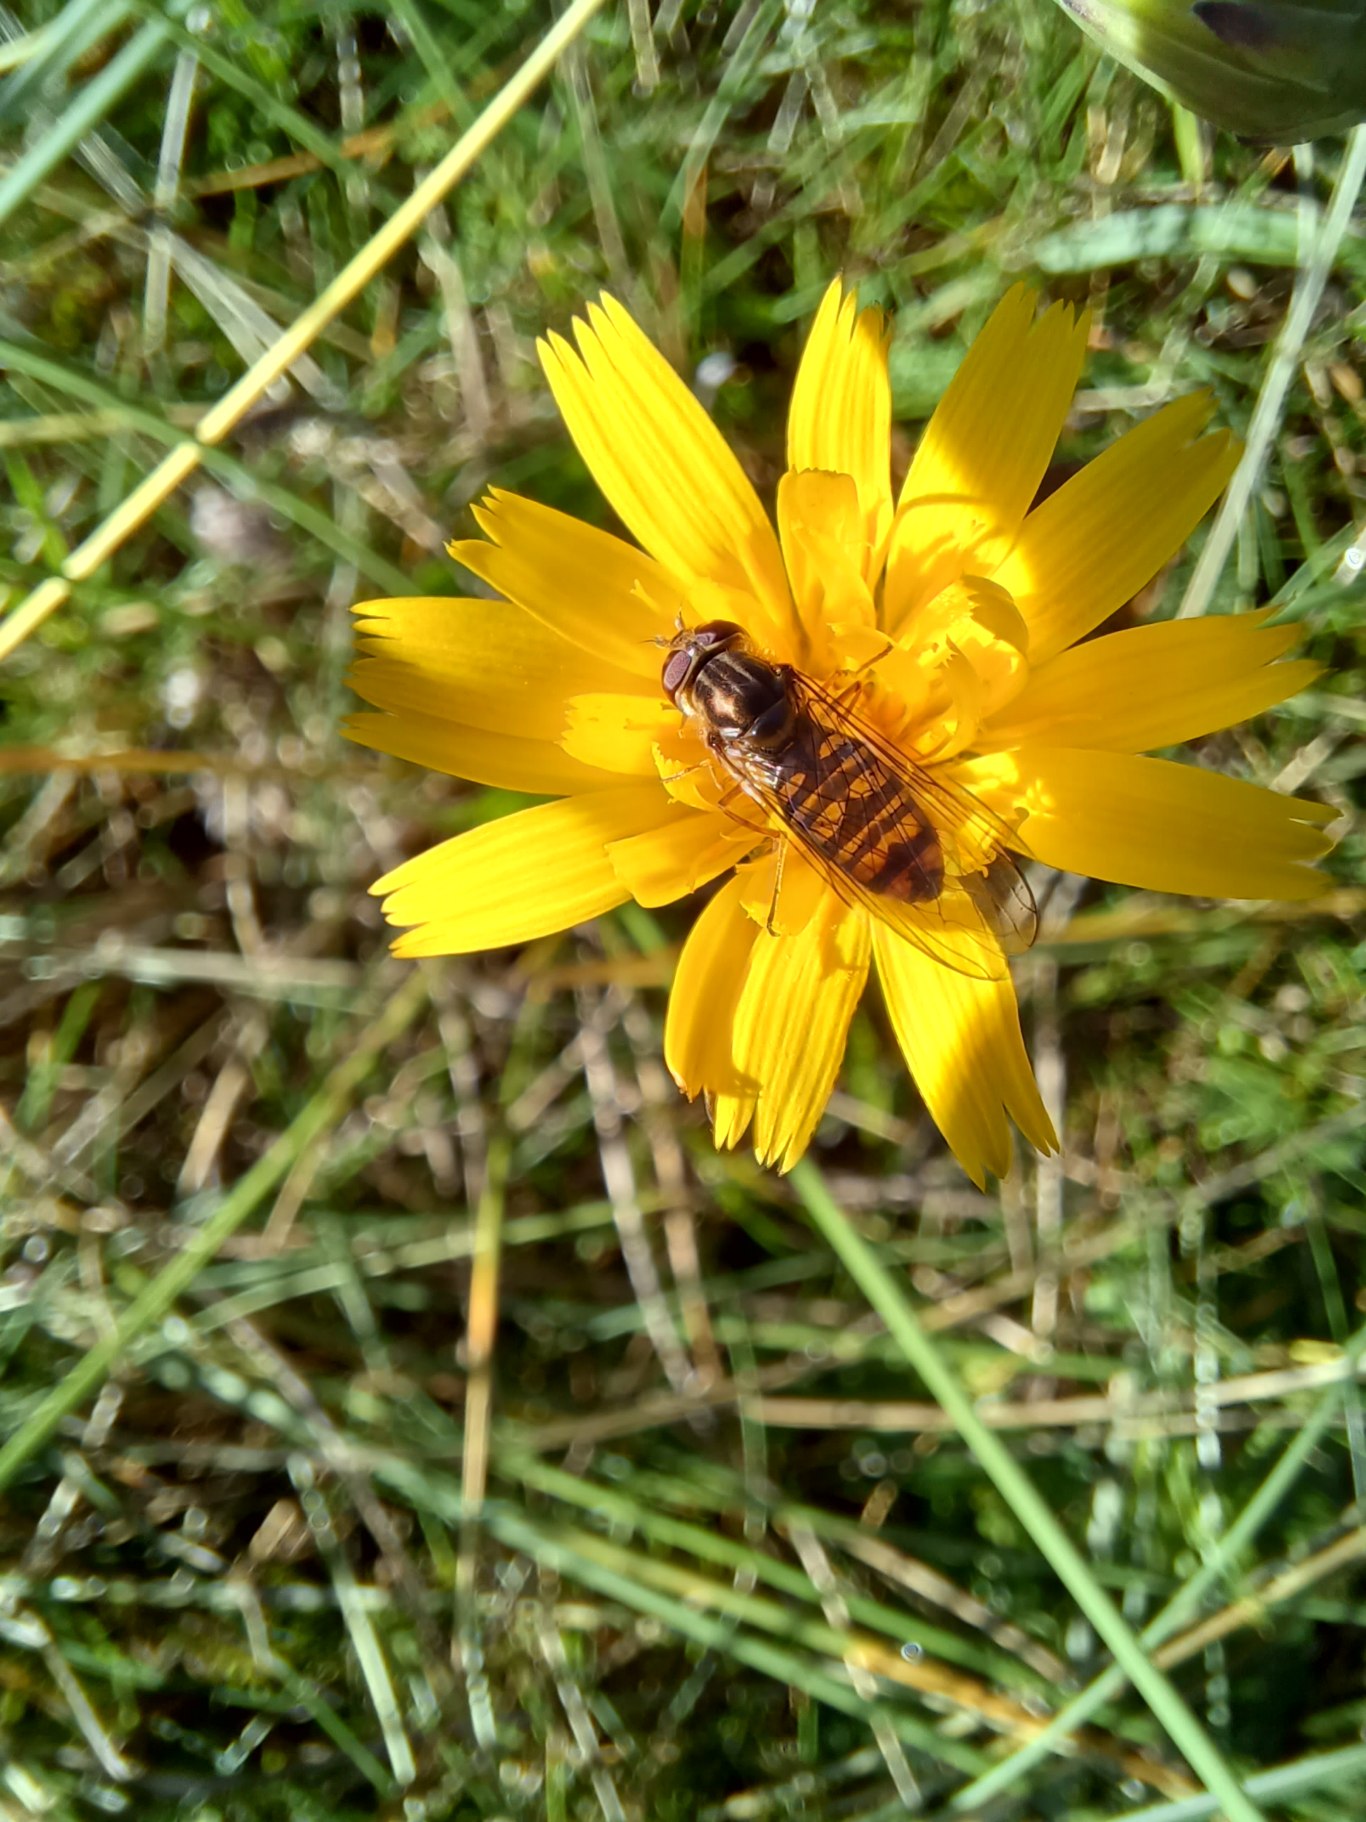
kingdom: Animalia
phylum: Arthropoda
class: Insecta
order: Diptera
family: Syrphidae
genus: Episyrphus
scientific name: Episyrphus balteatus
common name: Dobbeltbåndet svirreflue
